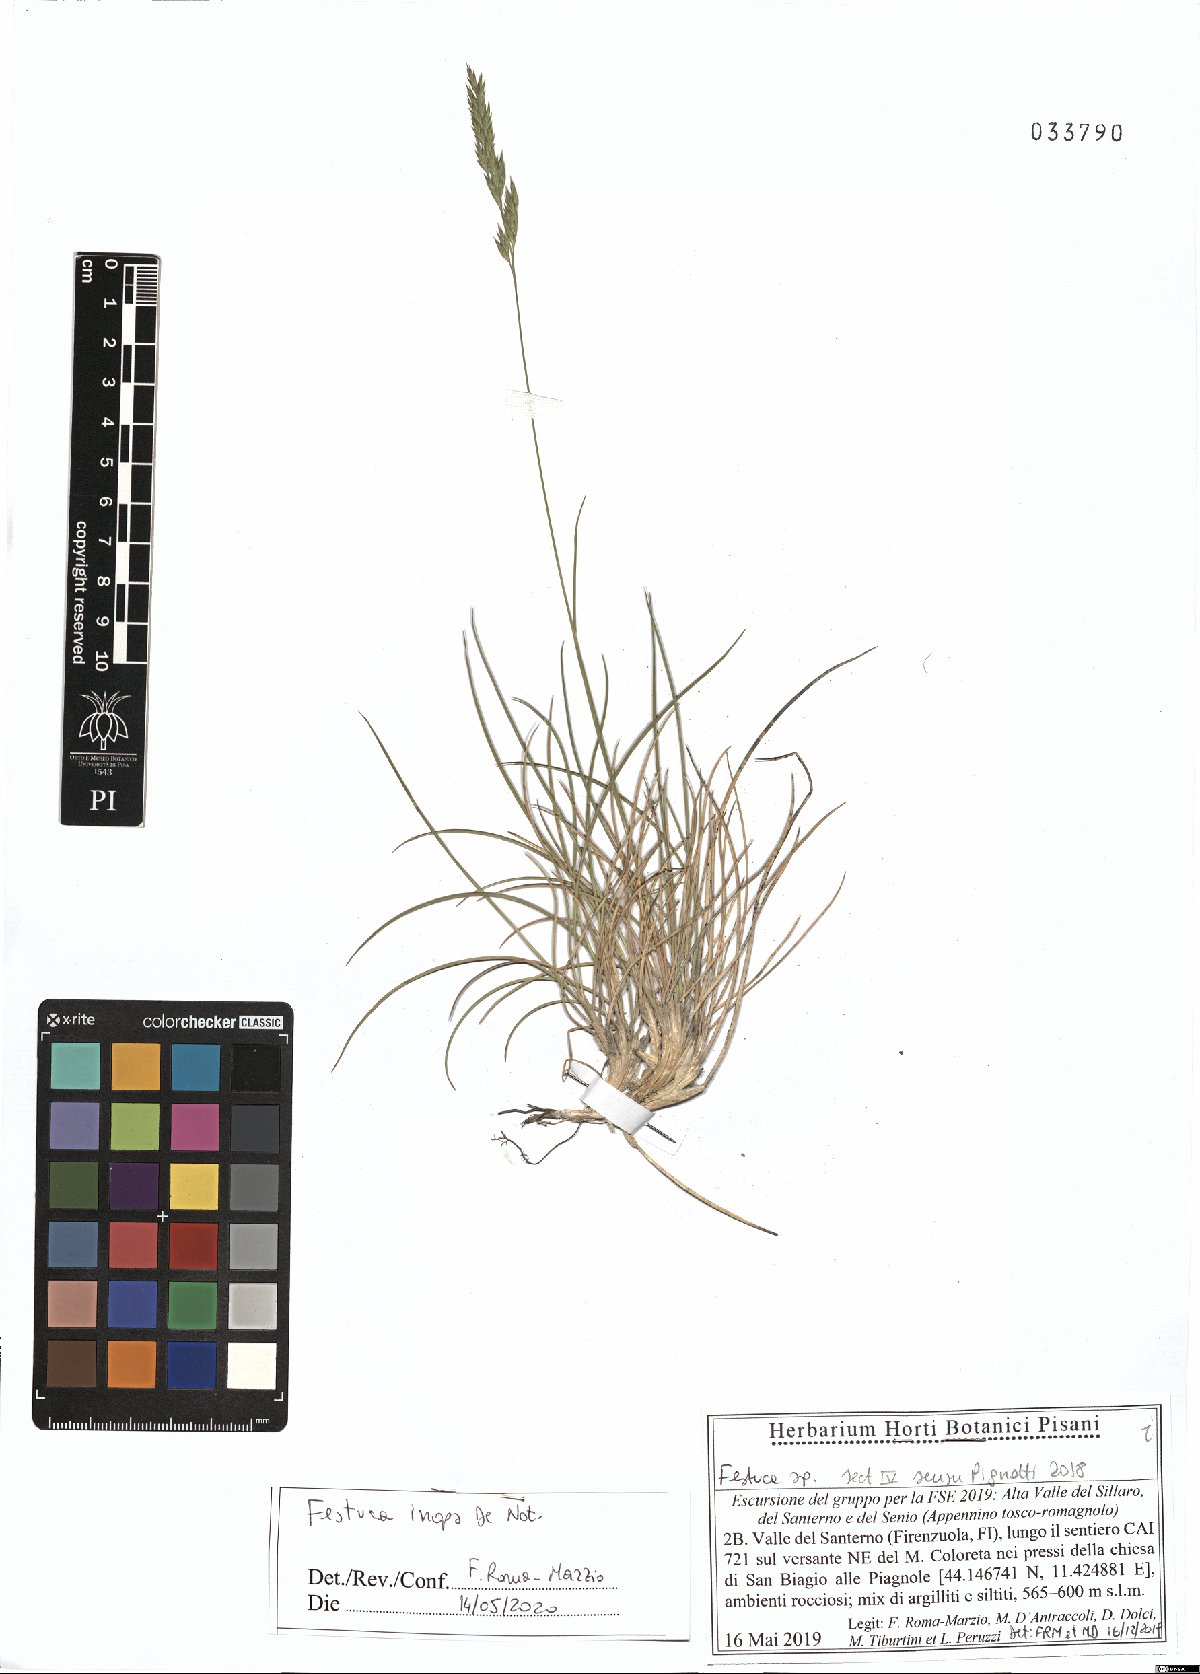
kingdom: Plantae
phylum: Tracheophyta
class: Liliopsida
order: Poales
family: Poaceae
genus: Festuca
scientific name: Festuca inops
